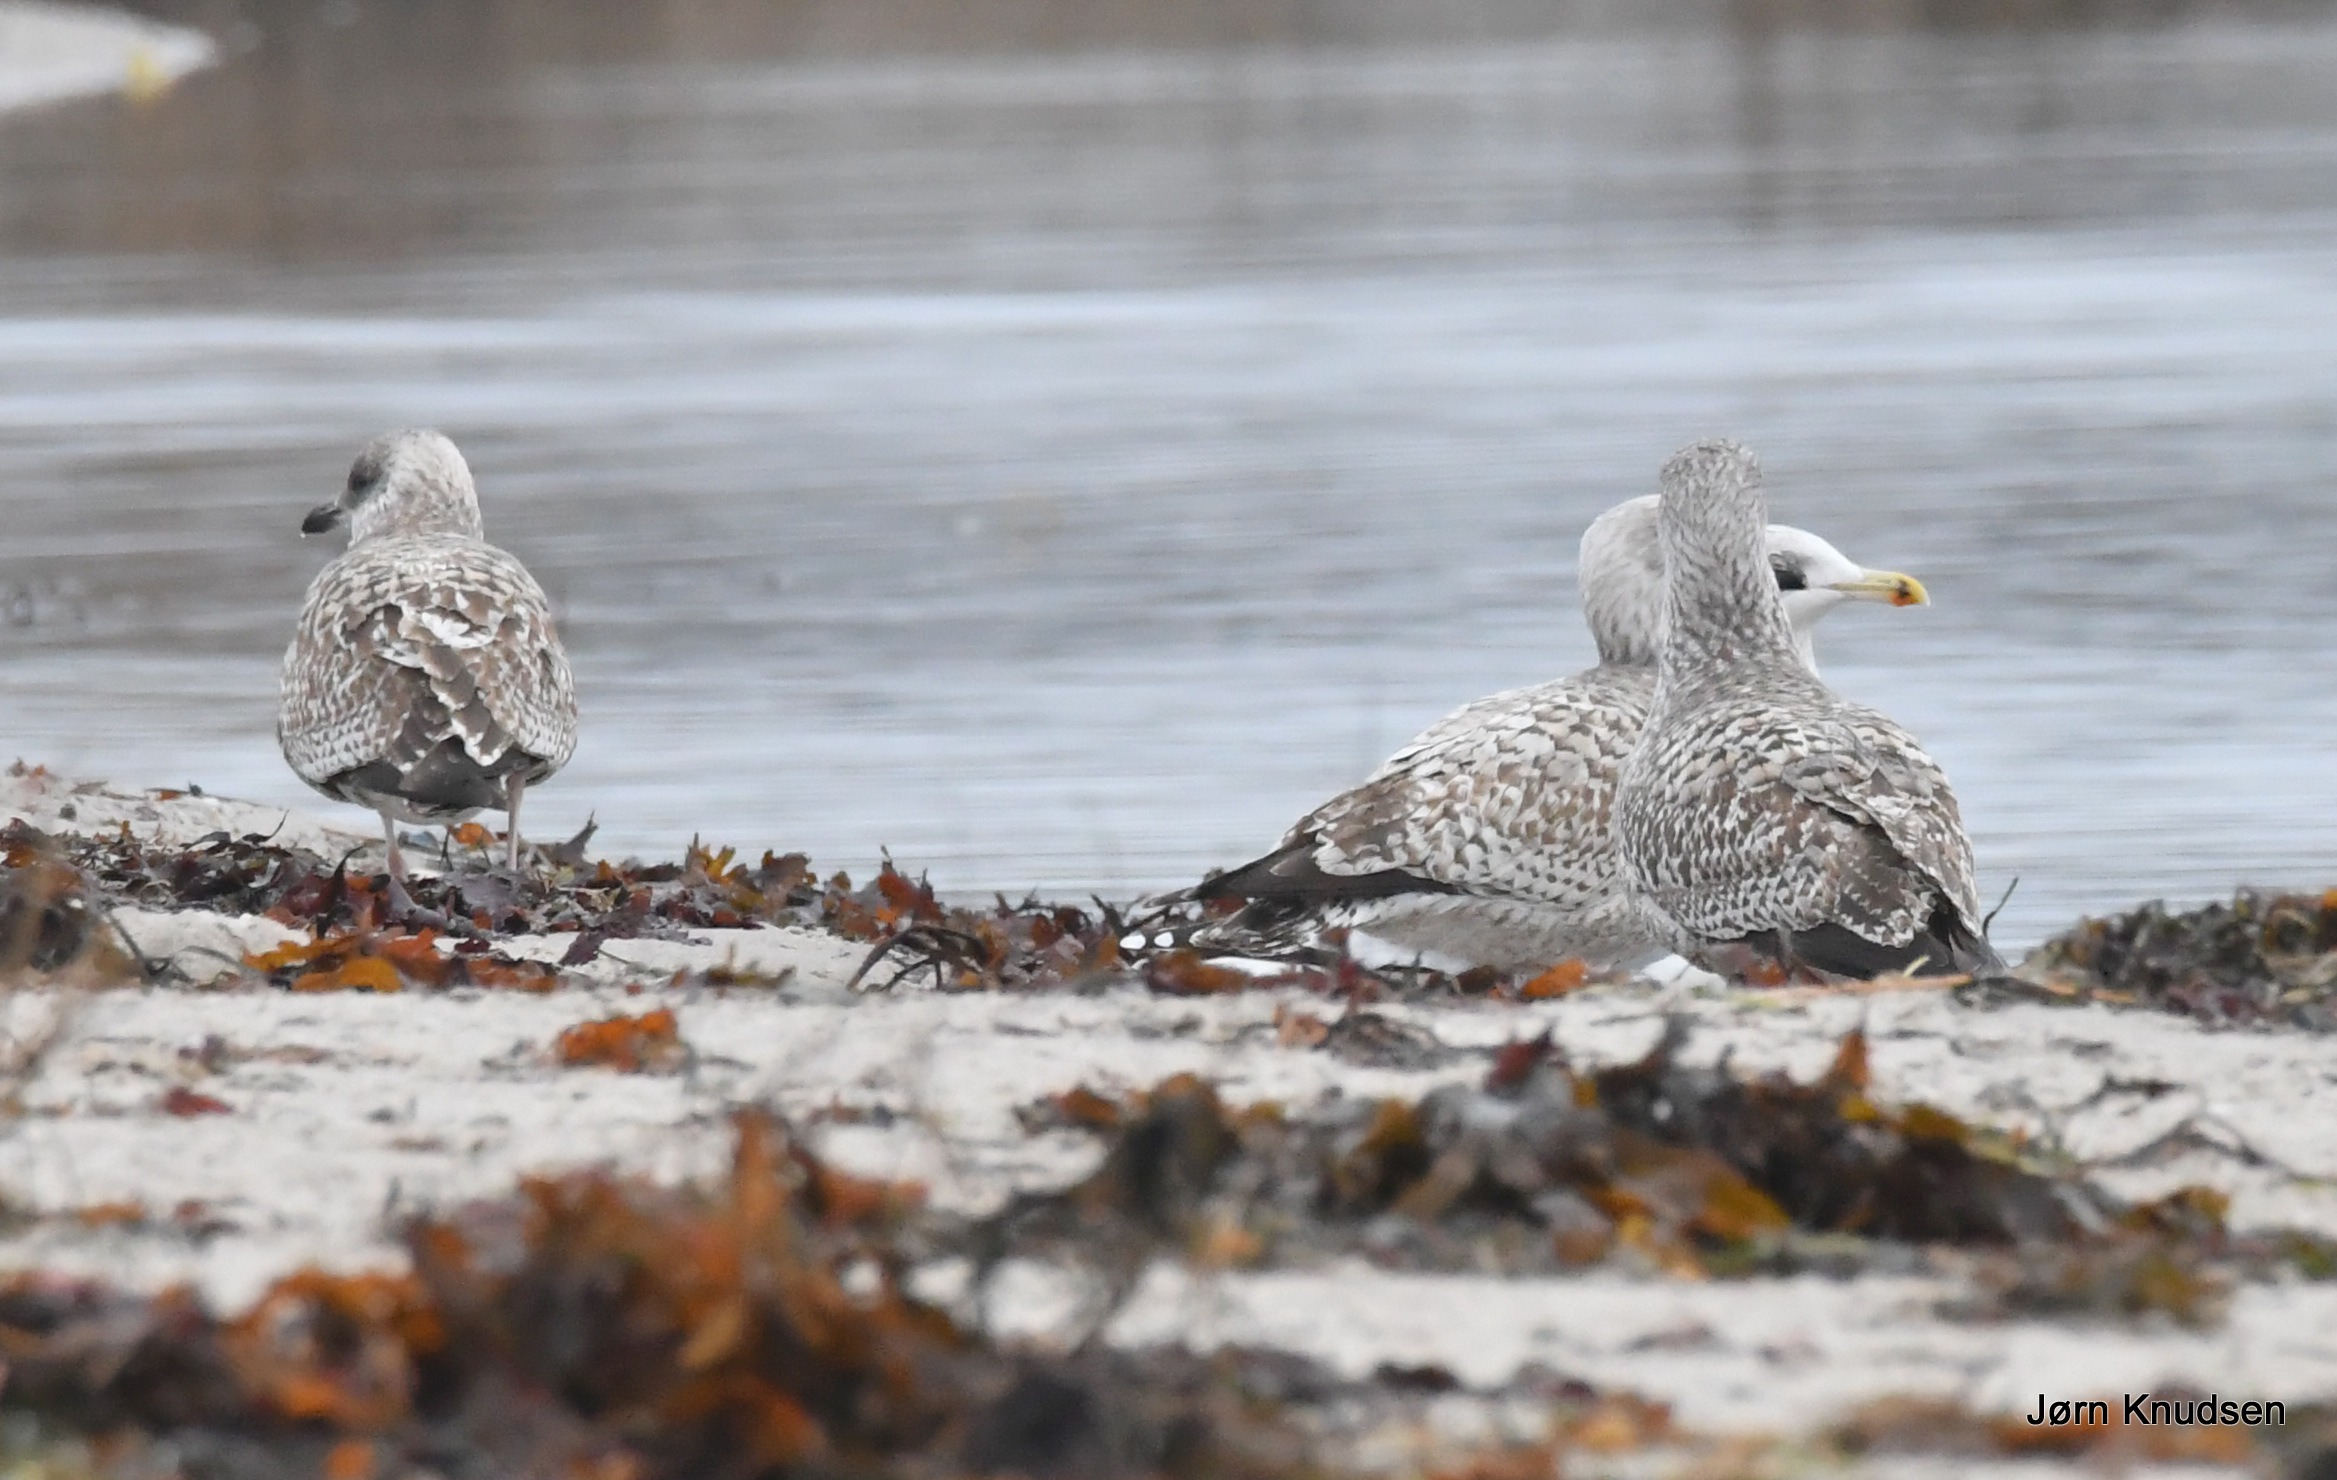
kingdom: Animalia
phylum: Chordata
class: Aves
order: Charadriiformes
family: Laridae
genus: Larus
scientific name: Larus argentatus
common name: Sølvmåge
